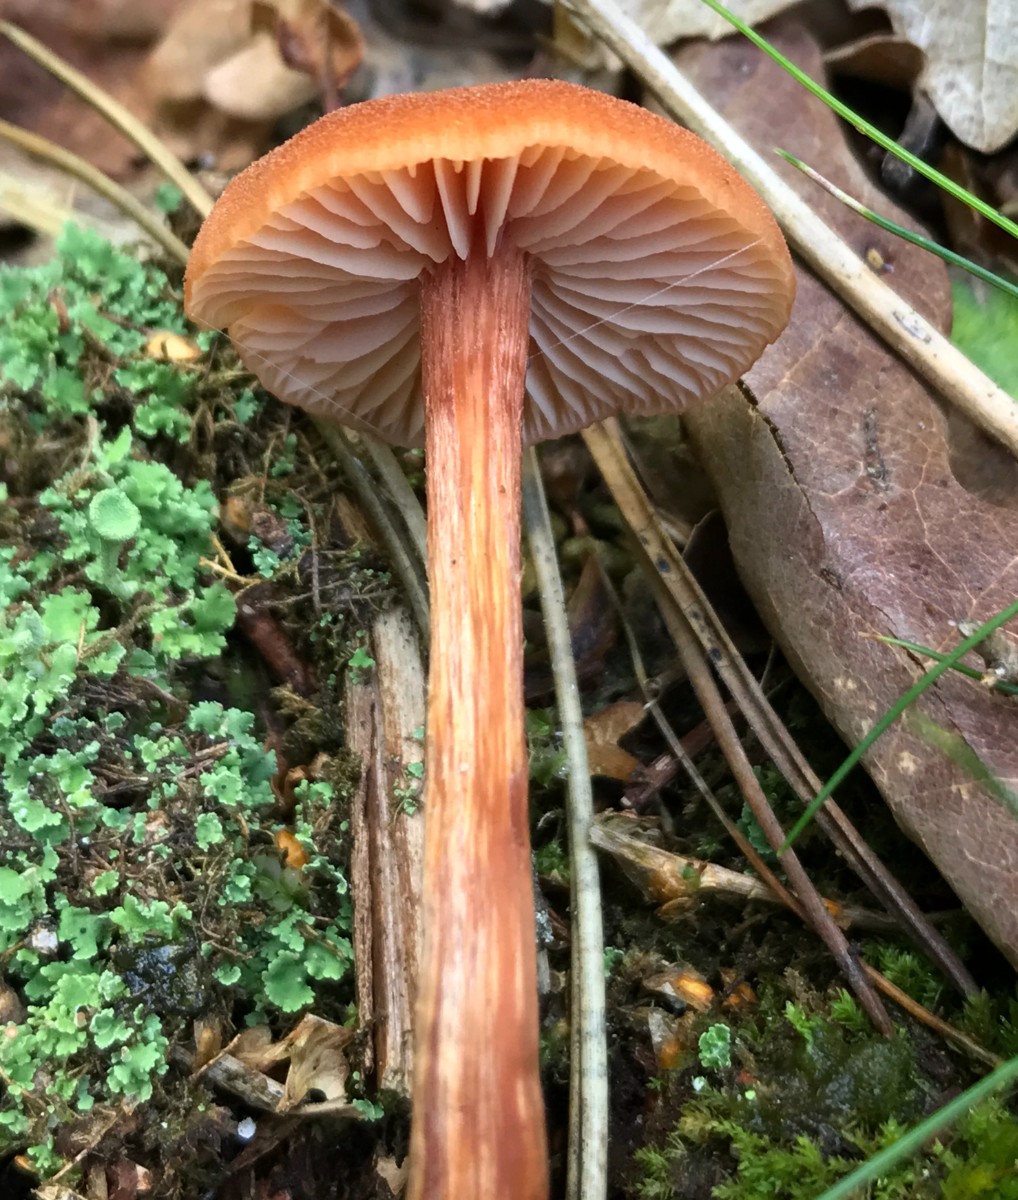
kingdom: Fungi
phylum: Basidiomycota
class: Agaricomycetes
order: Agaricales
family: Hydnangiaceae
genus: Laccaria
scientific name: Laccaria laccata
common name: rød ametysthat
